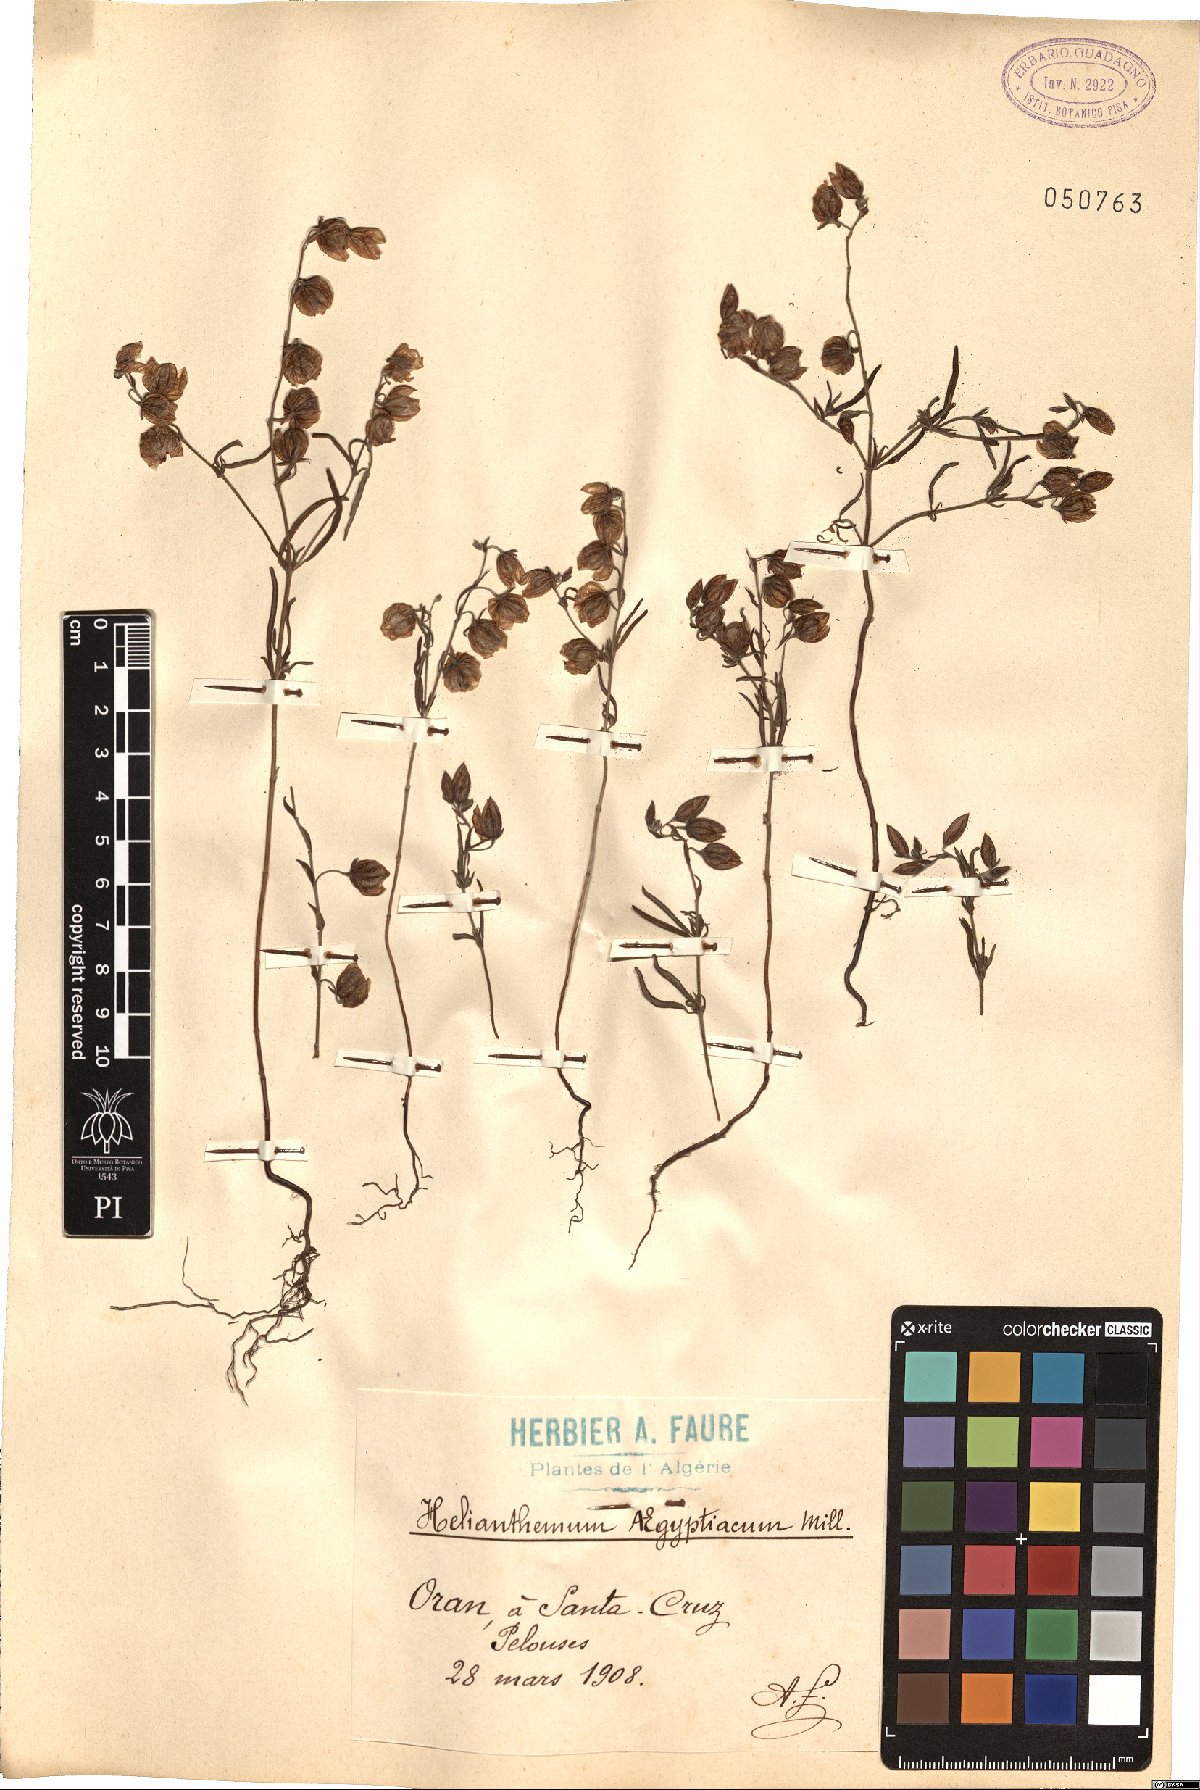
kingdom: Plantae
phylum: Tracheophyta
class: Magnoliopsida
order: Malvales
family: Cistaceae
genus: Helianthemum
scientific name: Helianthemum aegyptiacum
